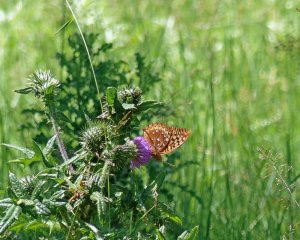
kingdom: Animalia
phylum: Arthropoda
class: Insecta
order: Lepidoptera
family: Nymphalidae
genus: Speyeria
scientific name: Speyeria cybele
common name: Great Spangled Fritillary
